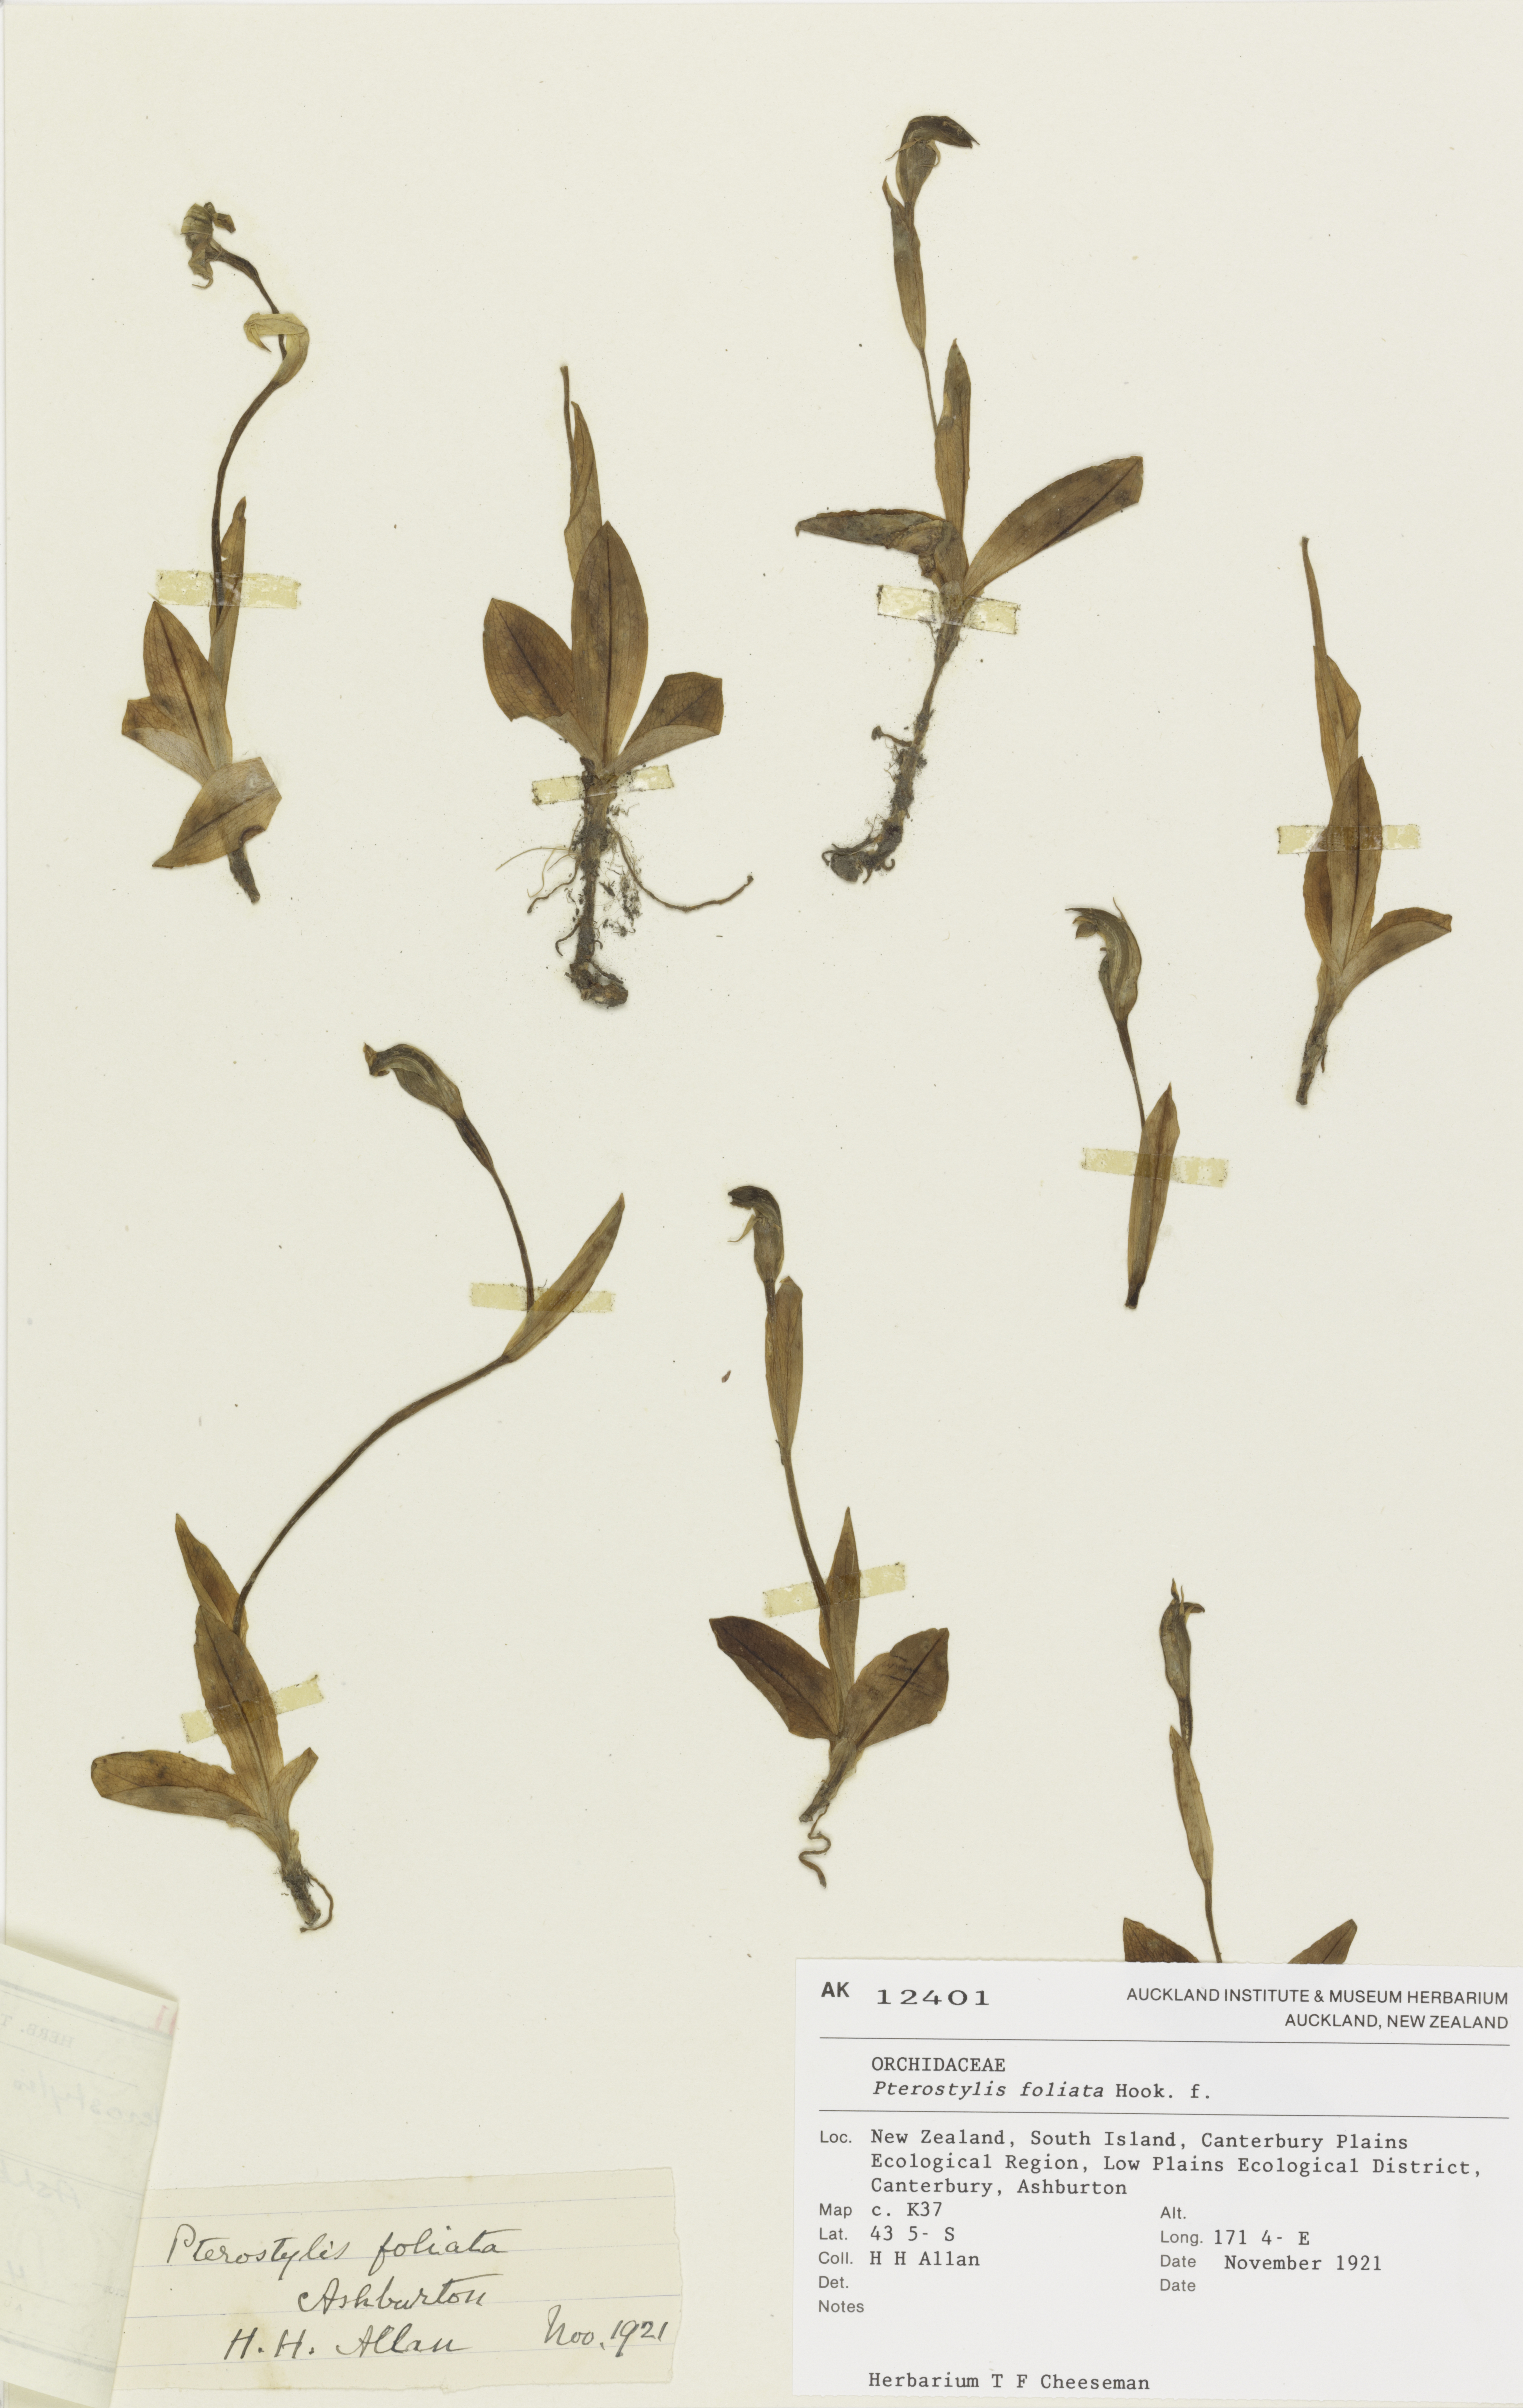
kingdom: Plantae
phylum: Tracheophyta
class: Liliopsida
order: Asparagales
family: Orchidaceae
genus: Pterostylis
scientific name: Pterostylis foliata
